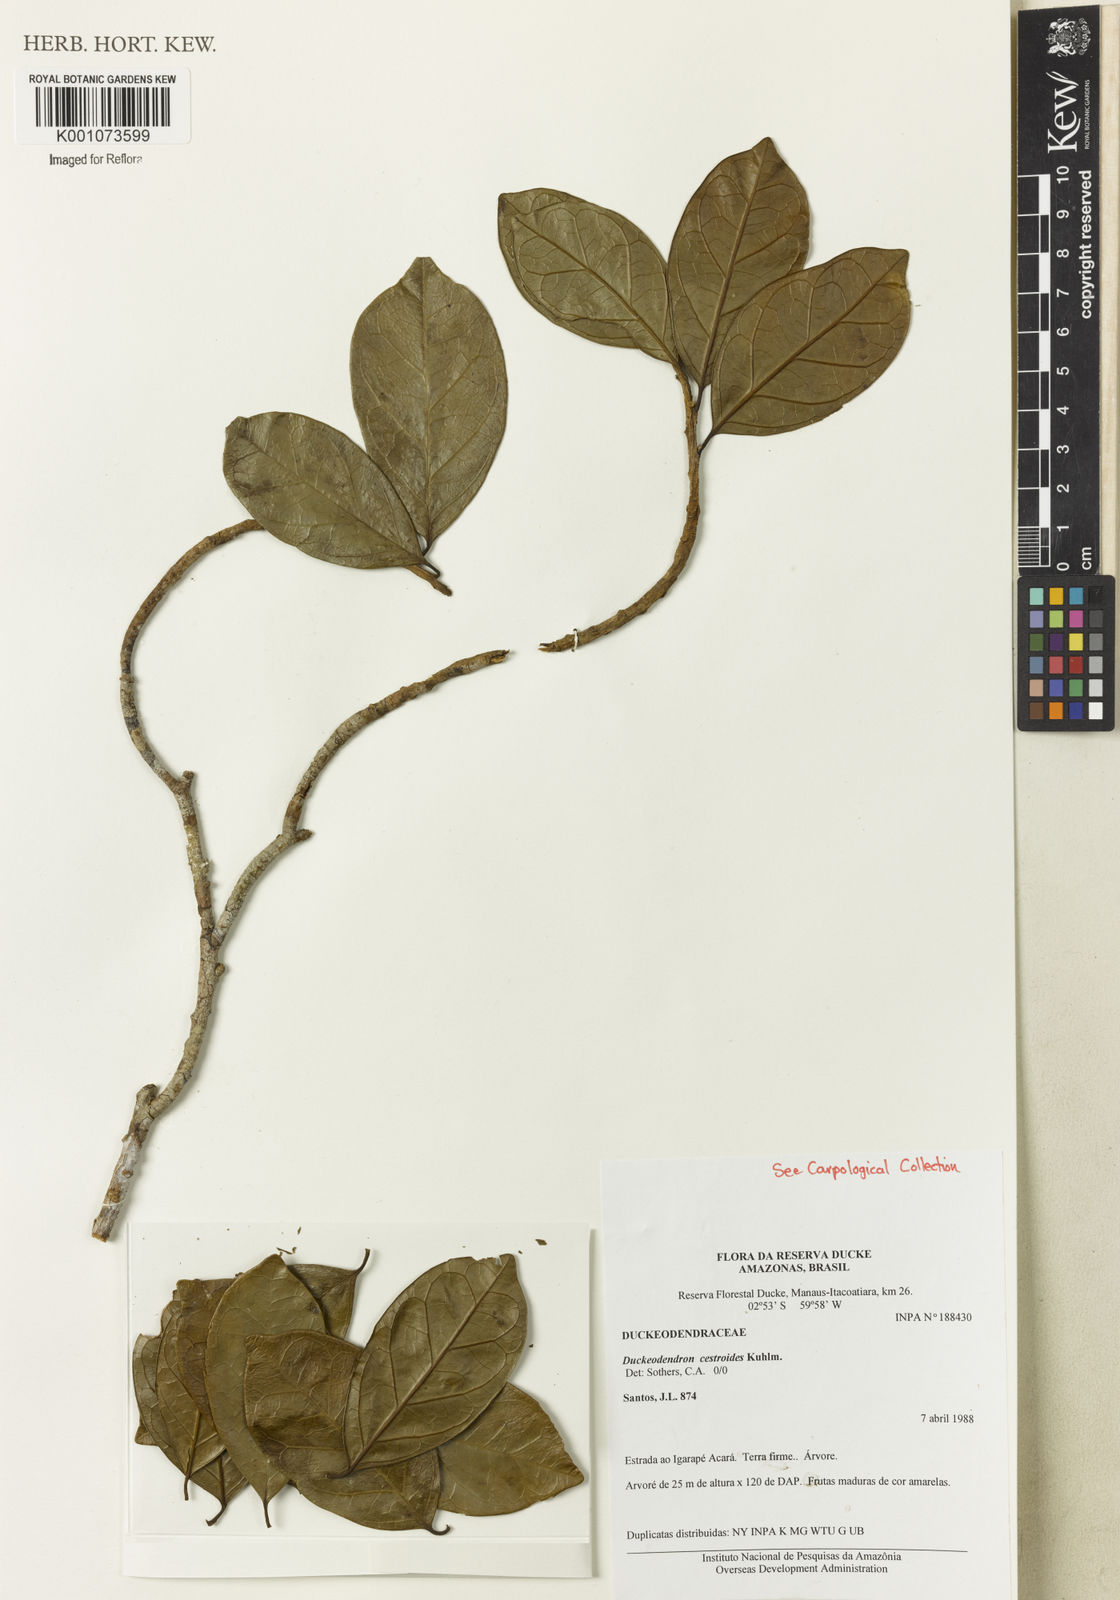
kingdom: Plantae
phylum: Tracheophyta
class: Magnoliopsida
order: Solanales
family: Solanaceae
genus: Duckeodendron
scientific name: Duckeodendron cestroides
